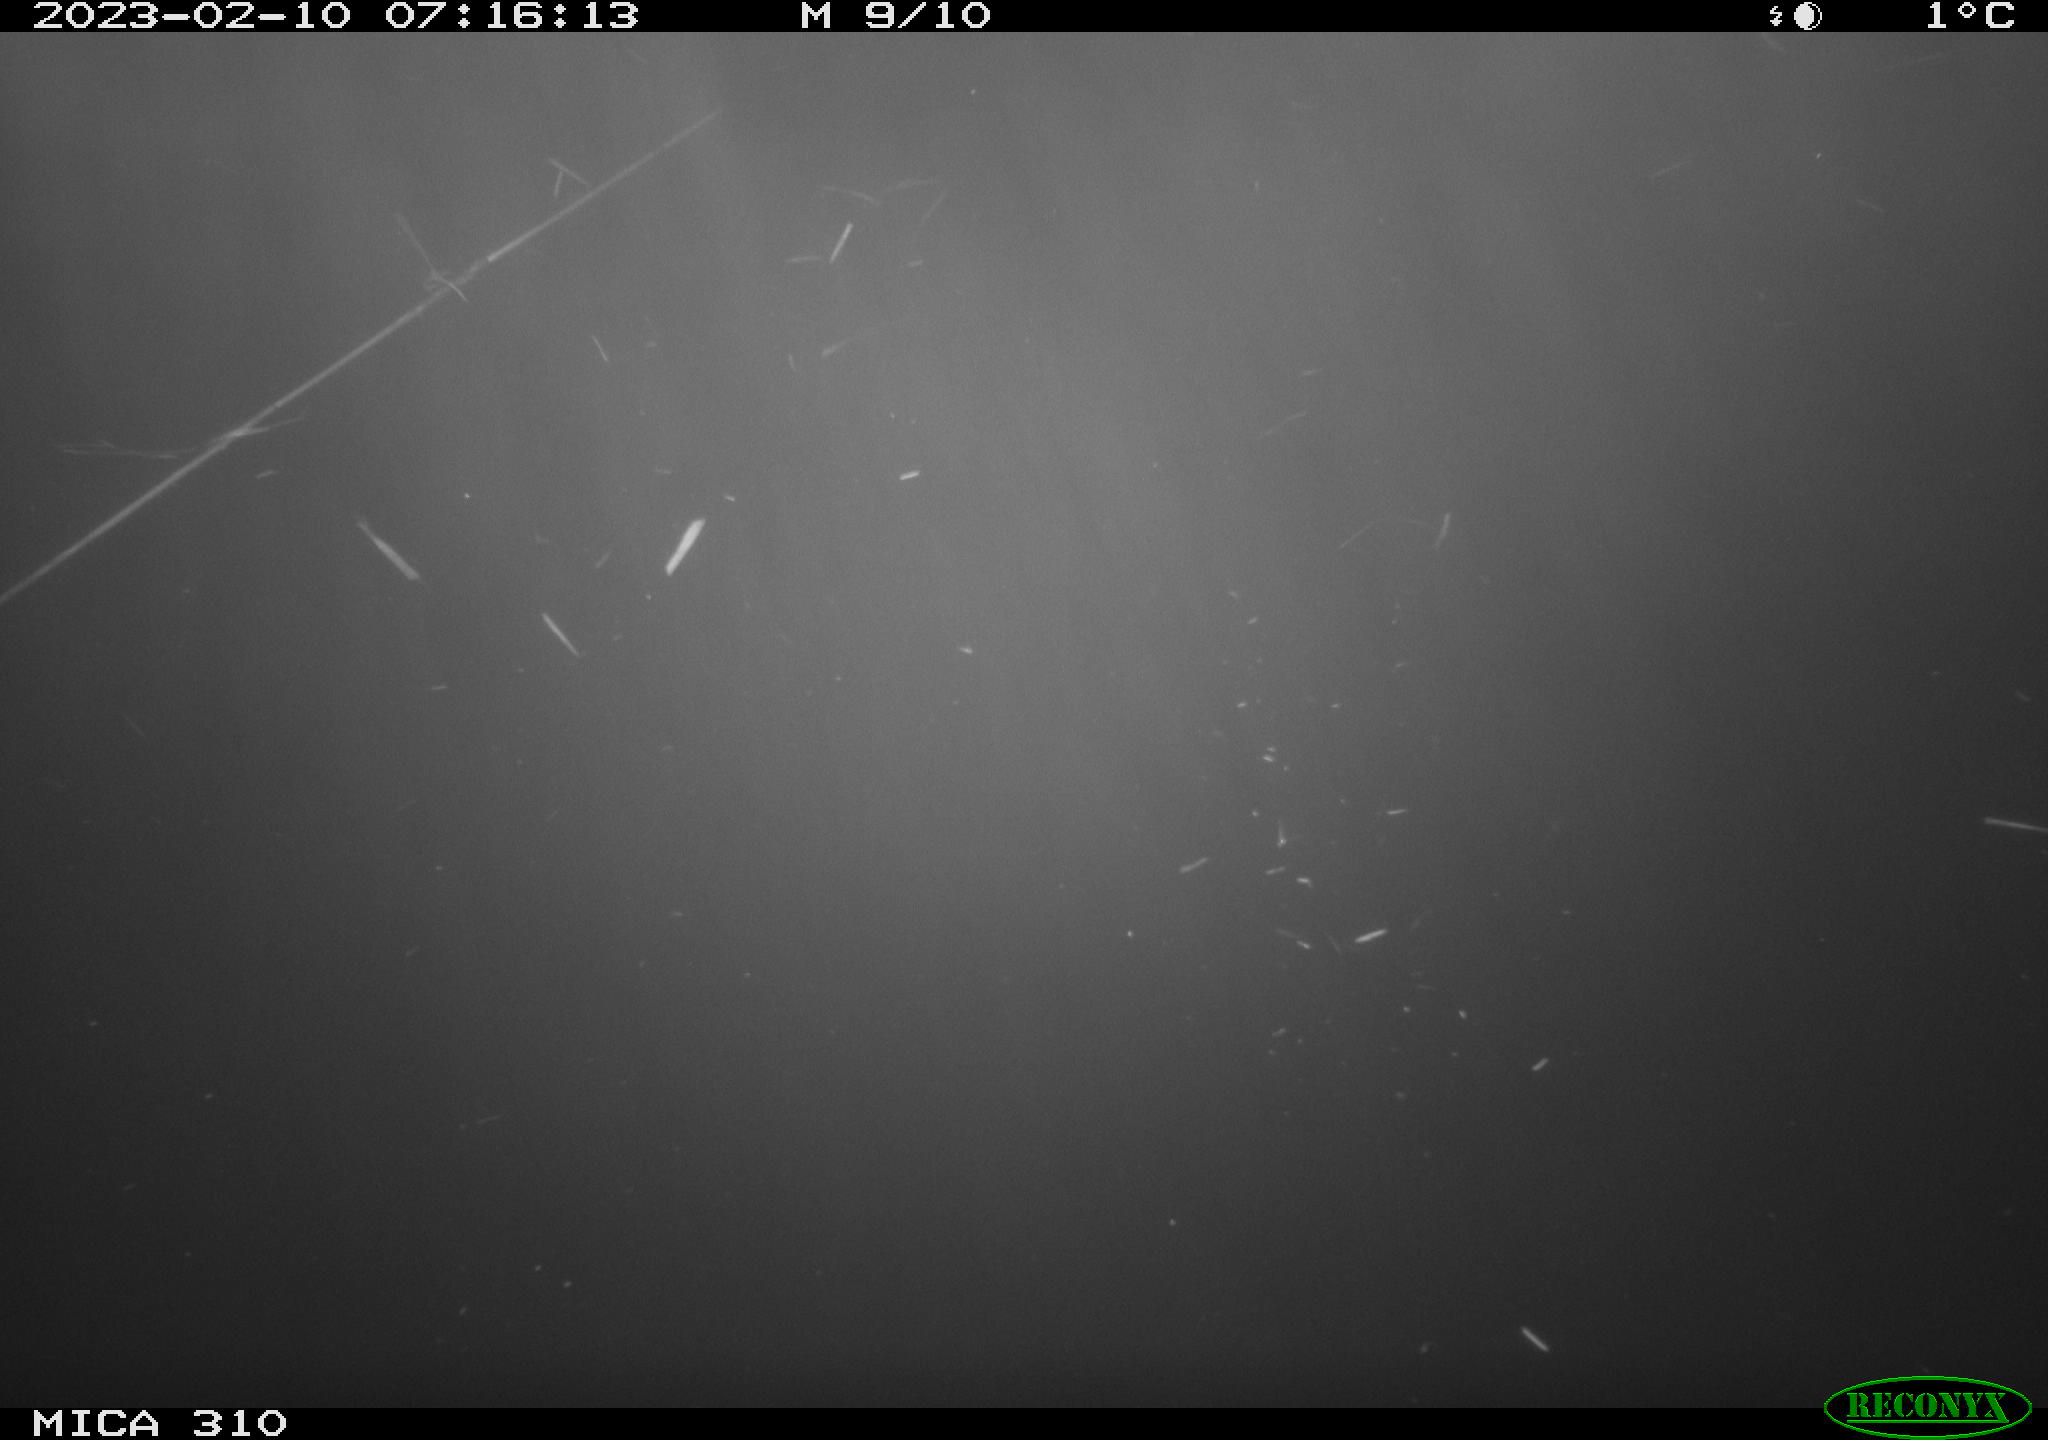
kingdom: Animalia
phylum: Chordata
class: Aves
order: Anseriformes
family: Anatidae
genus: Anas
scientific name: Anas
